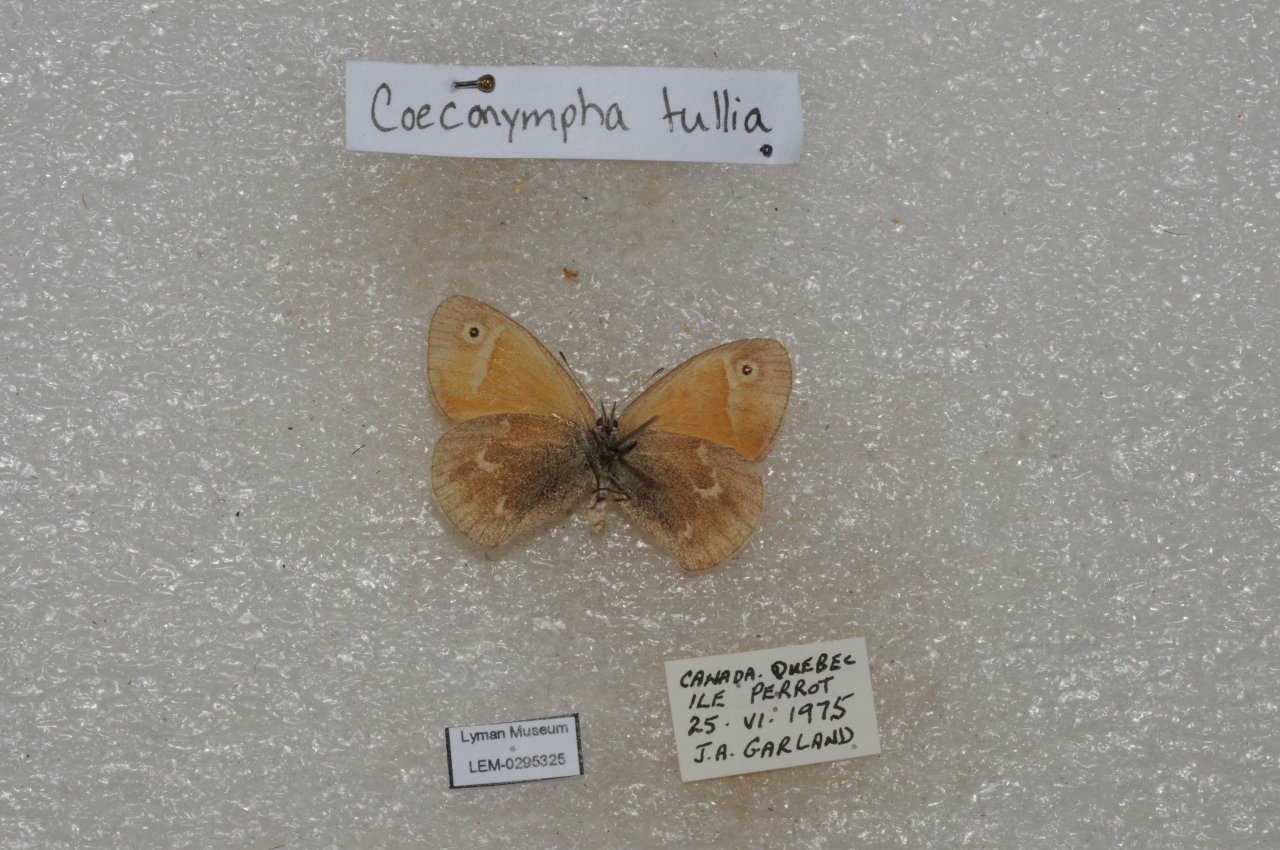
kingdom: Animalia
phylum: Arthropoda
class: Insecta
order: Lepidoptera
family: Nymphalidae
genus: Coenonympha
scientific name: Coenonympha tullia
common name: Large Heath
